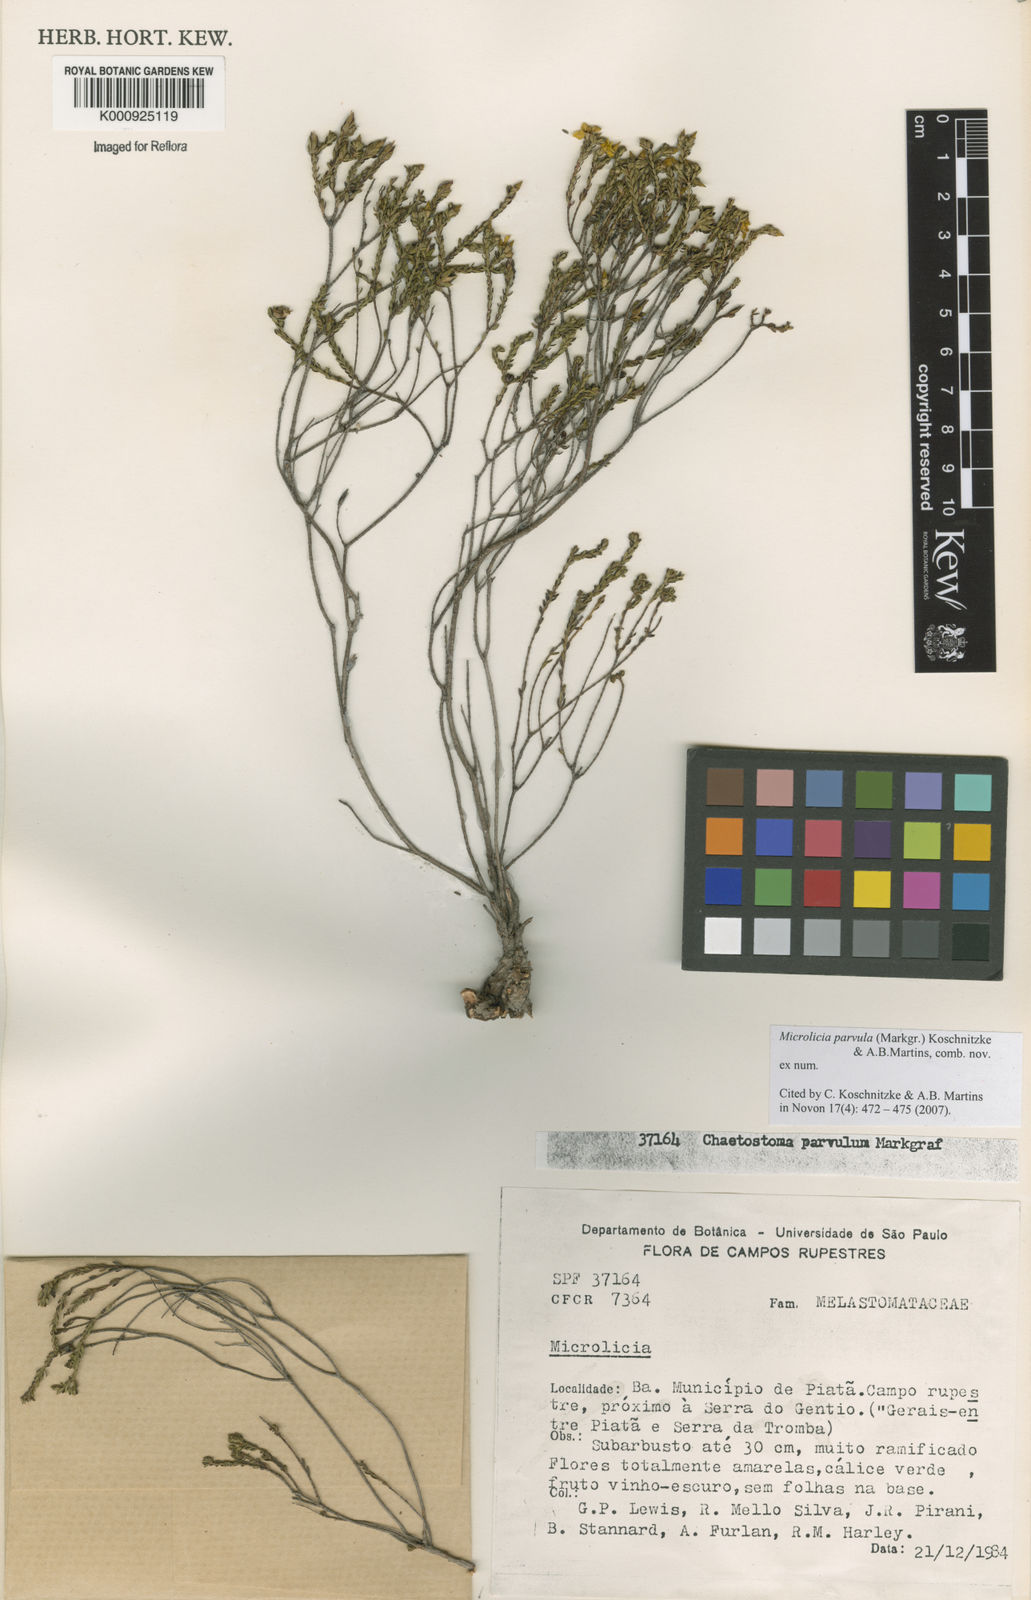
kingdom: Plantae
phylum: Tracheophyta
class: Magnoliopsida
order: Myrtales
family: Melastomataceae
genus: Microlicia
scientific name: Microlicia parvula
